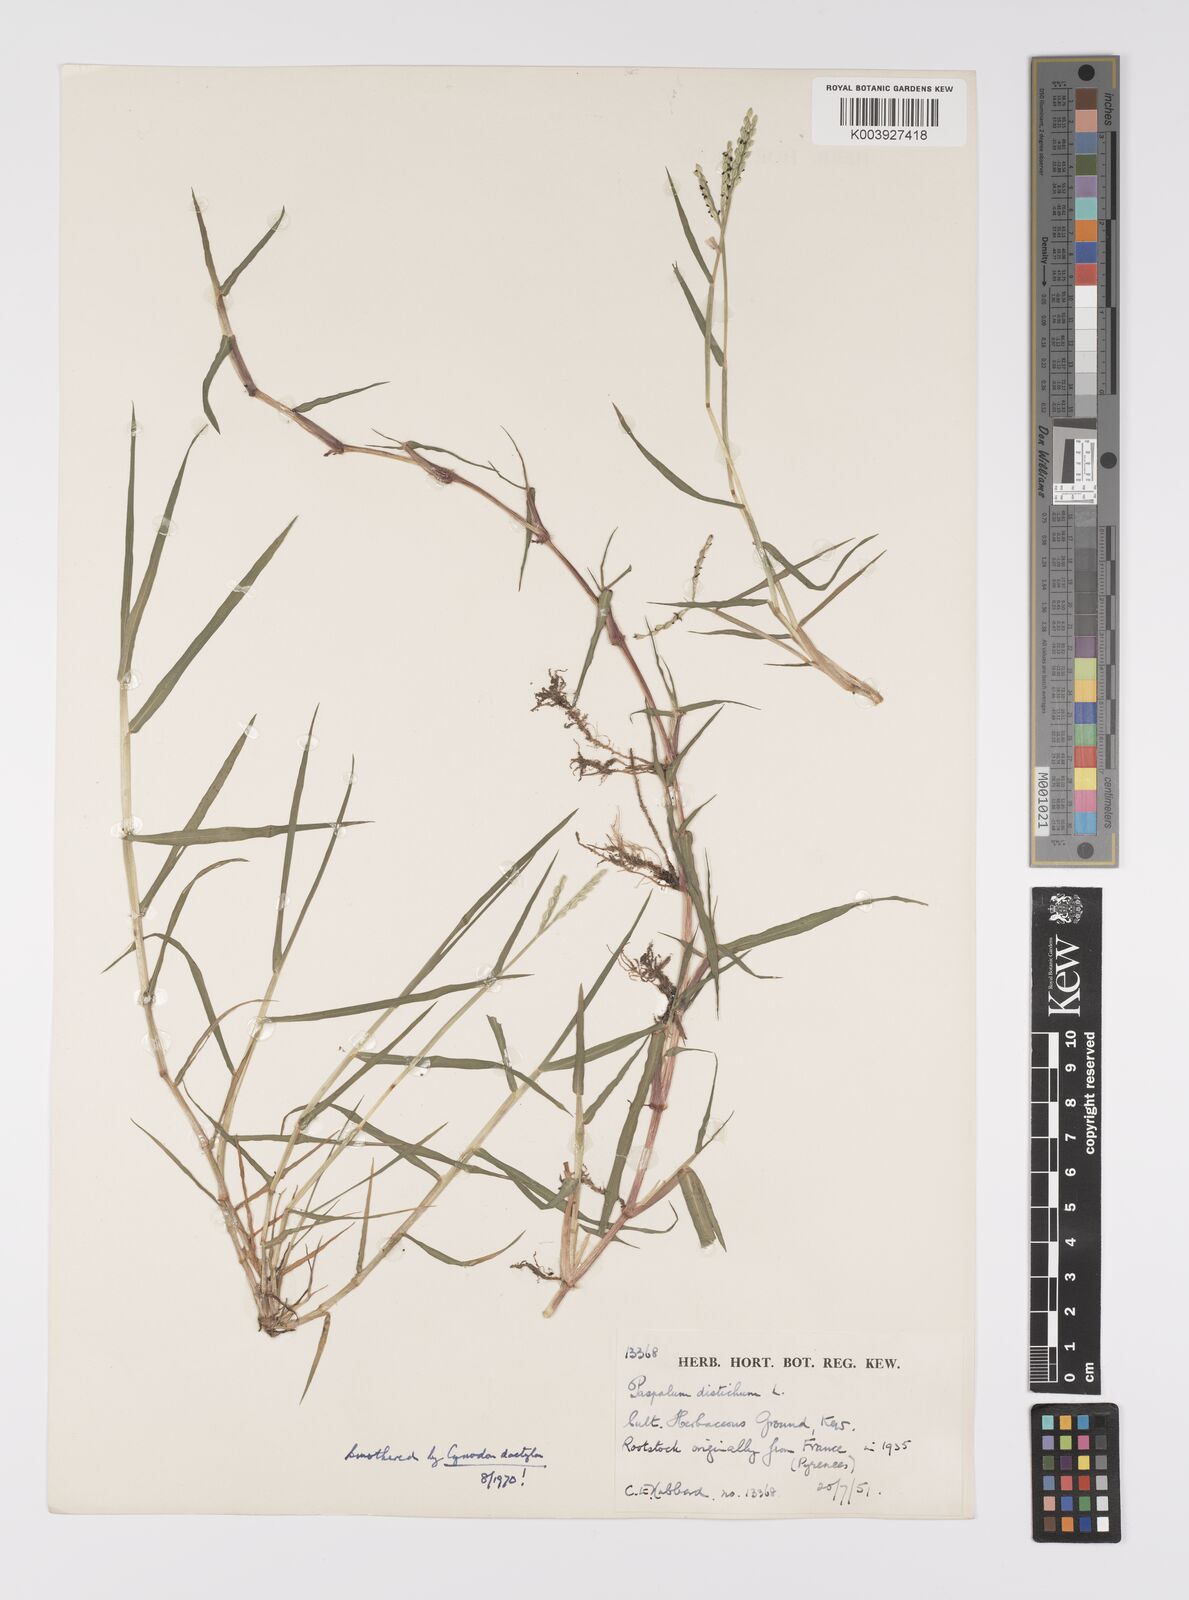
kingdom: Plantae
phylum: Tracheophyta
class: Liliopsida
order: Poales
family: Poaceae
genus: Paspalum
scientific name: Paspalum distichum
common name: Knotgrass
